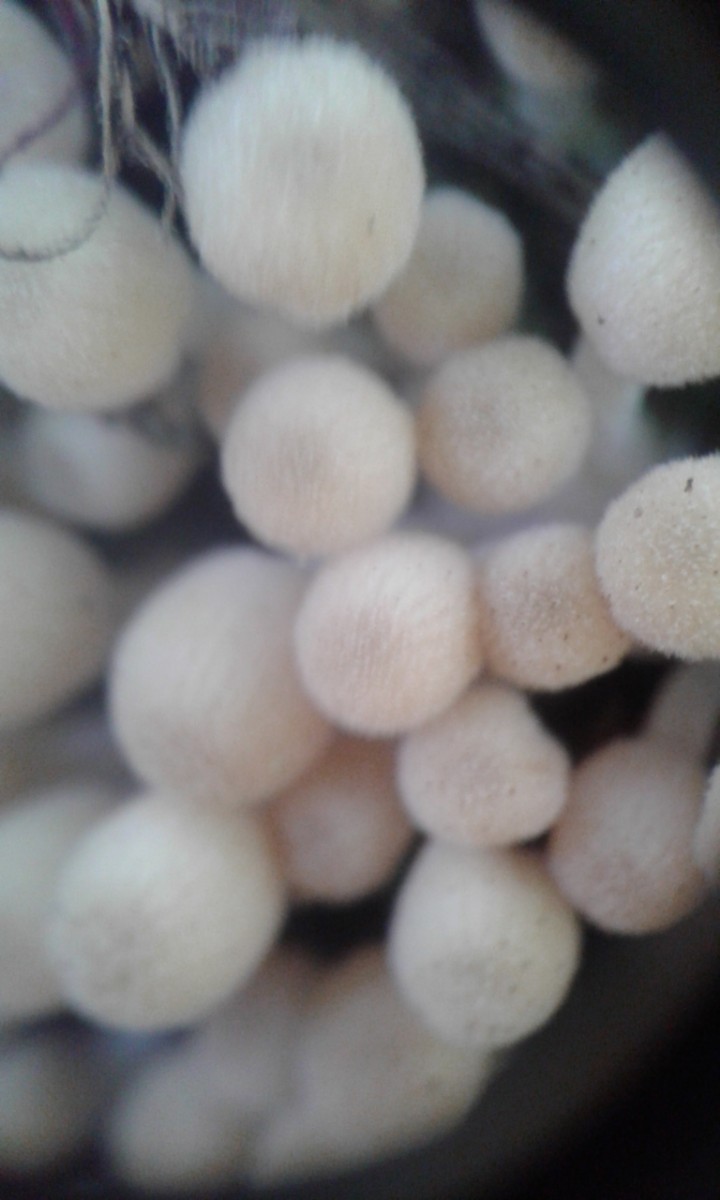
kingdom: Fungi
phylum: Basidiomycota
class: Agaricomycetes
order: Agaricales
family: Psathyrellaceae
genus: Coprinellus
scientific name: Coprinellus disseminatus
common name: bredsået blækhat
